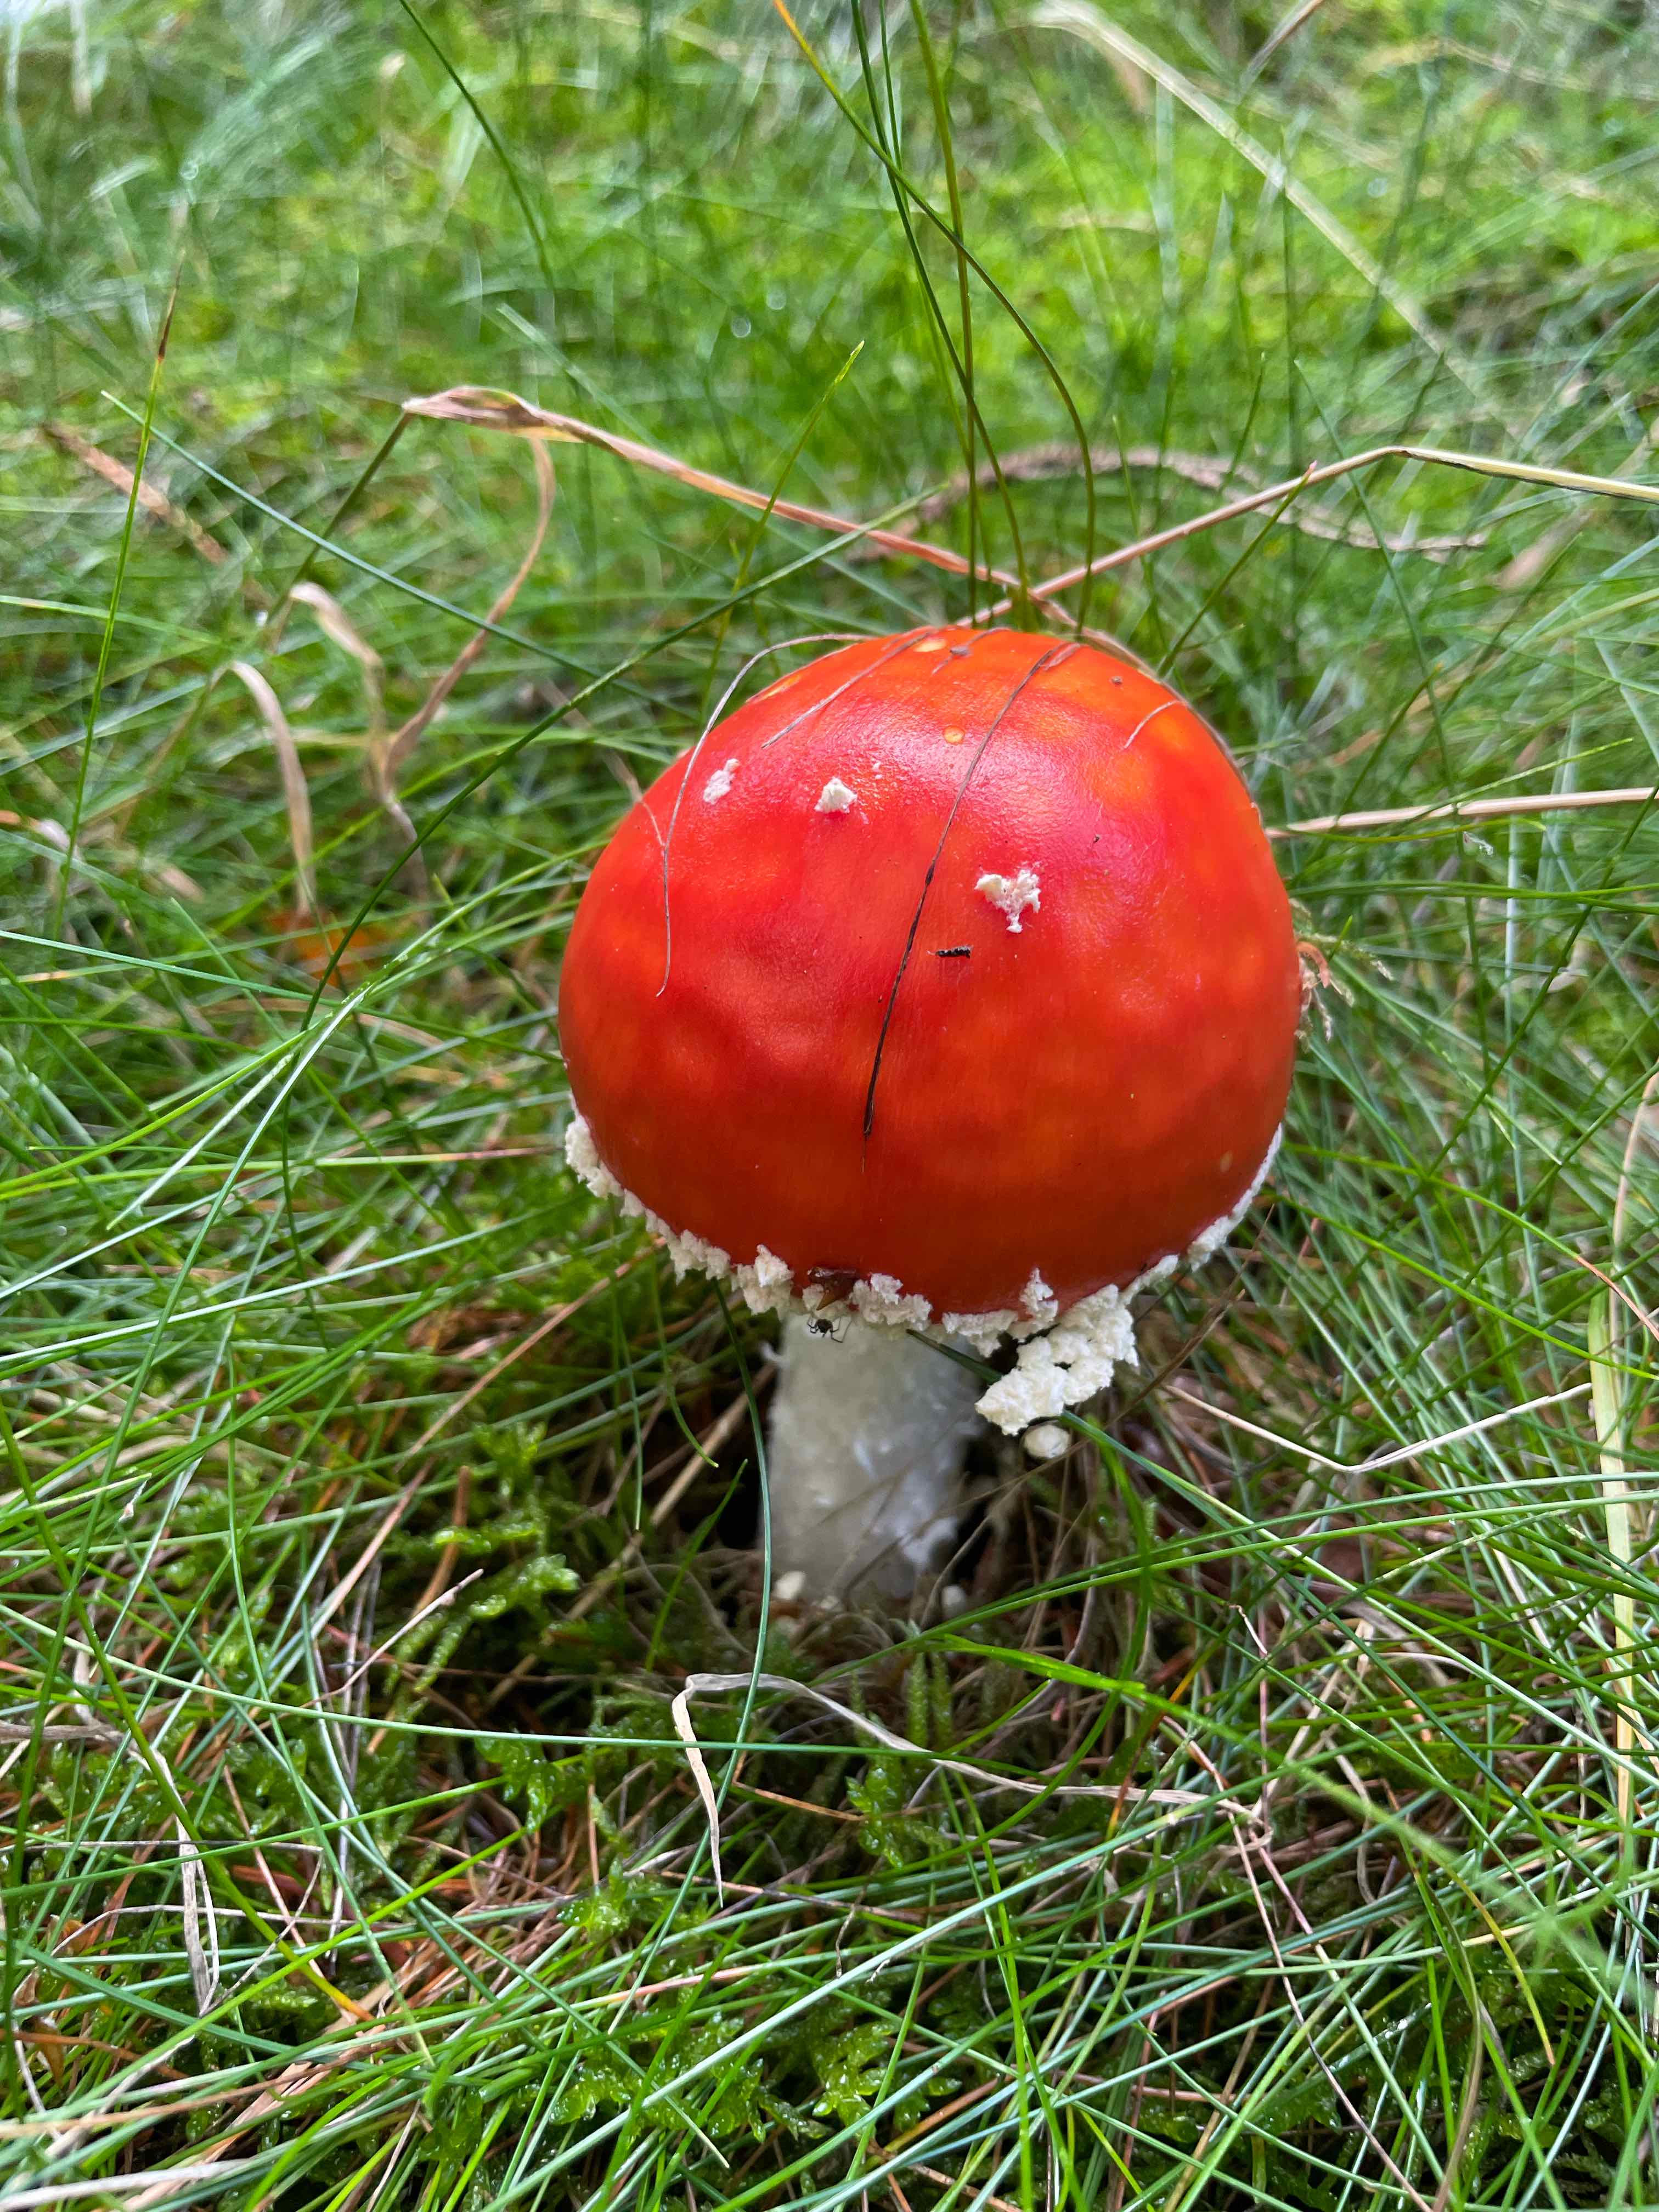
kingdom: Fungi
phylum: Basidiomycota
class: Agaricomycetes
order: Agaricales
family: Amanitaceae
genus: Amanita
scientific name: Amanita muscaria
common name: rød fluesvamp
